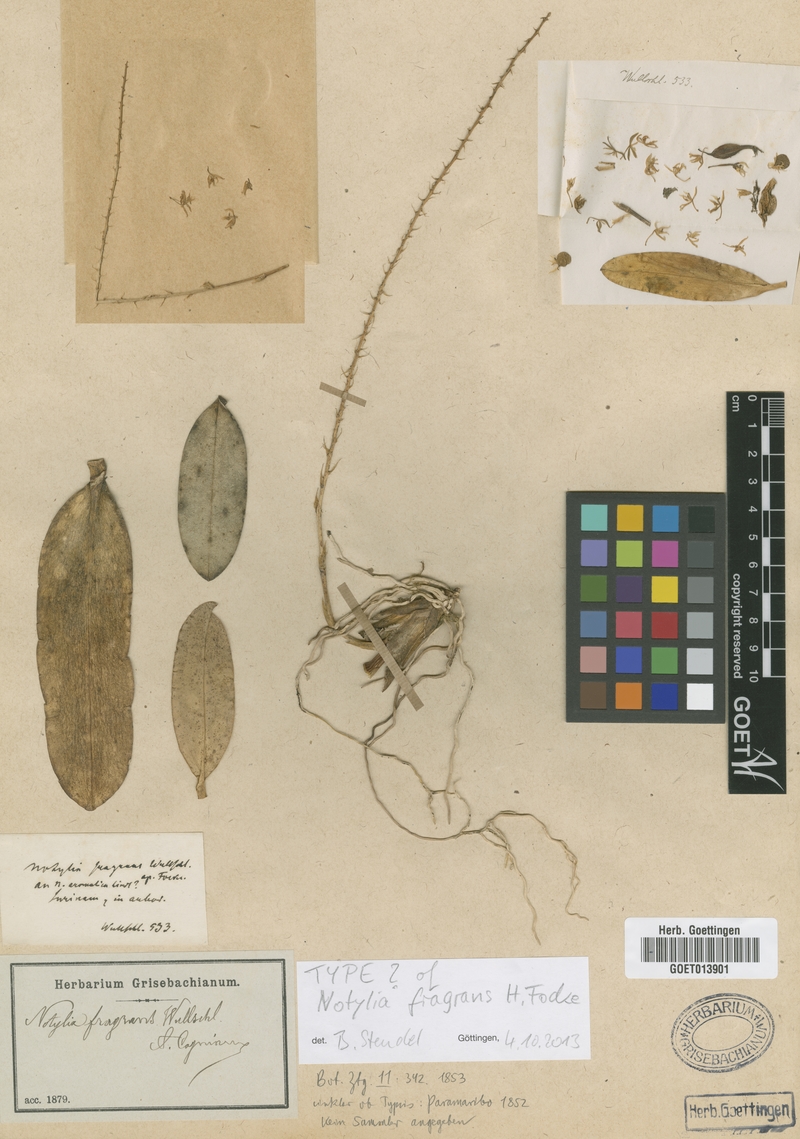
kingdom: Plantae
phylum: Tracheophyta
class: Liliopsida
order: Asparagales
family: Orchidaceae
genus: Notylia
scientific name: Notylia fragrans
